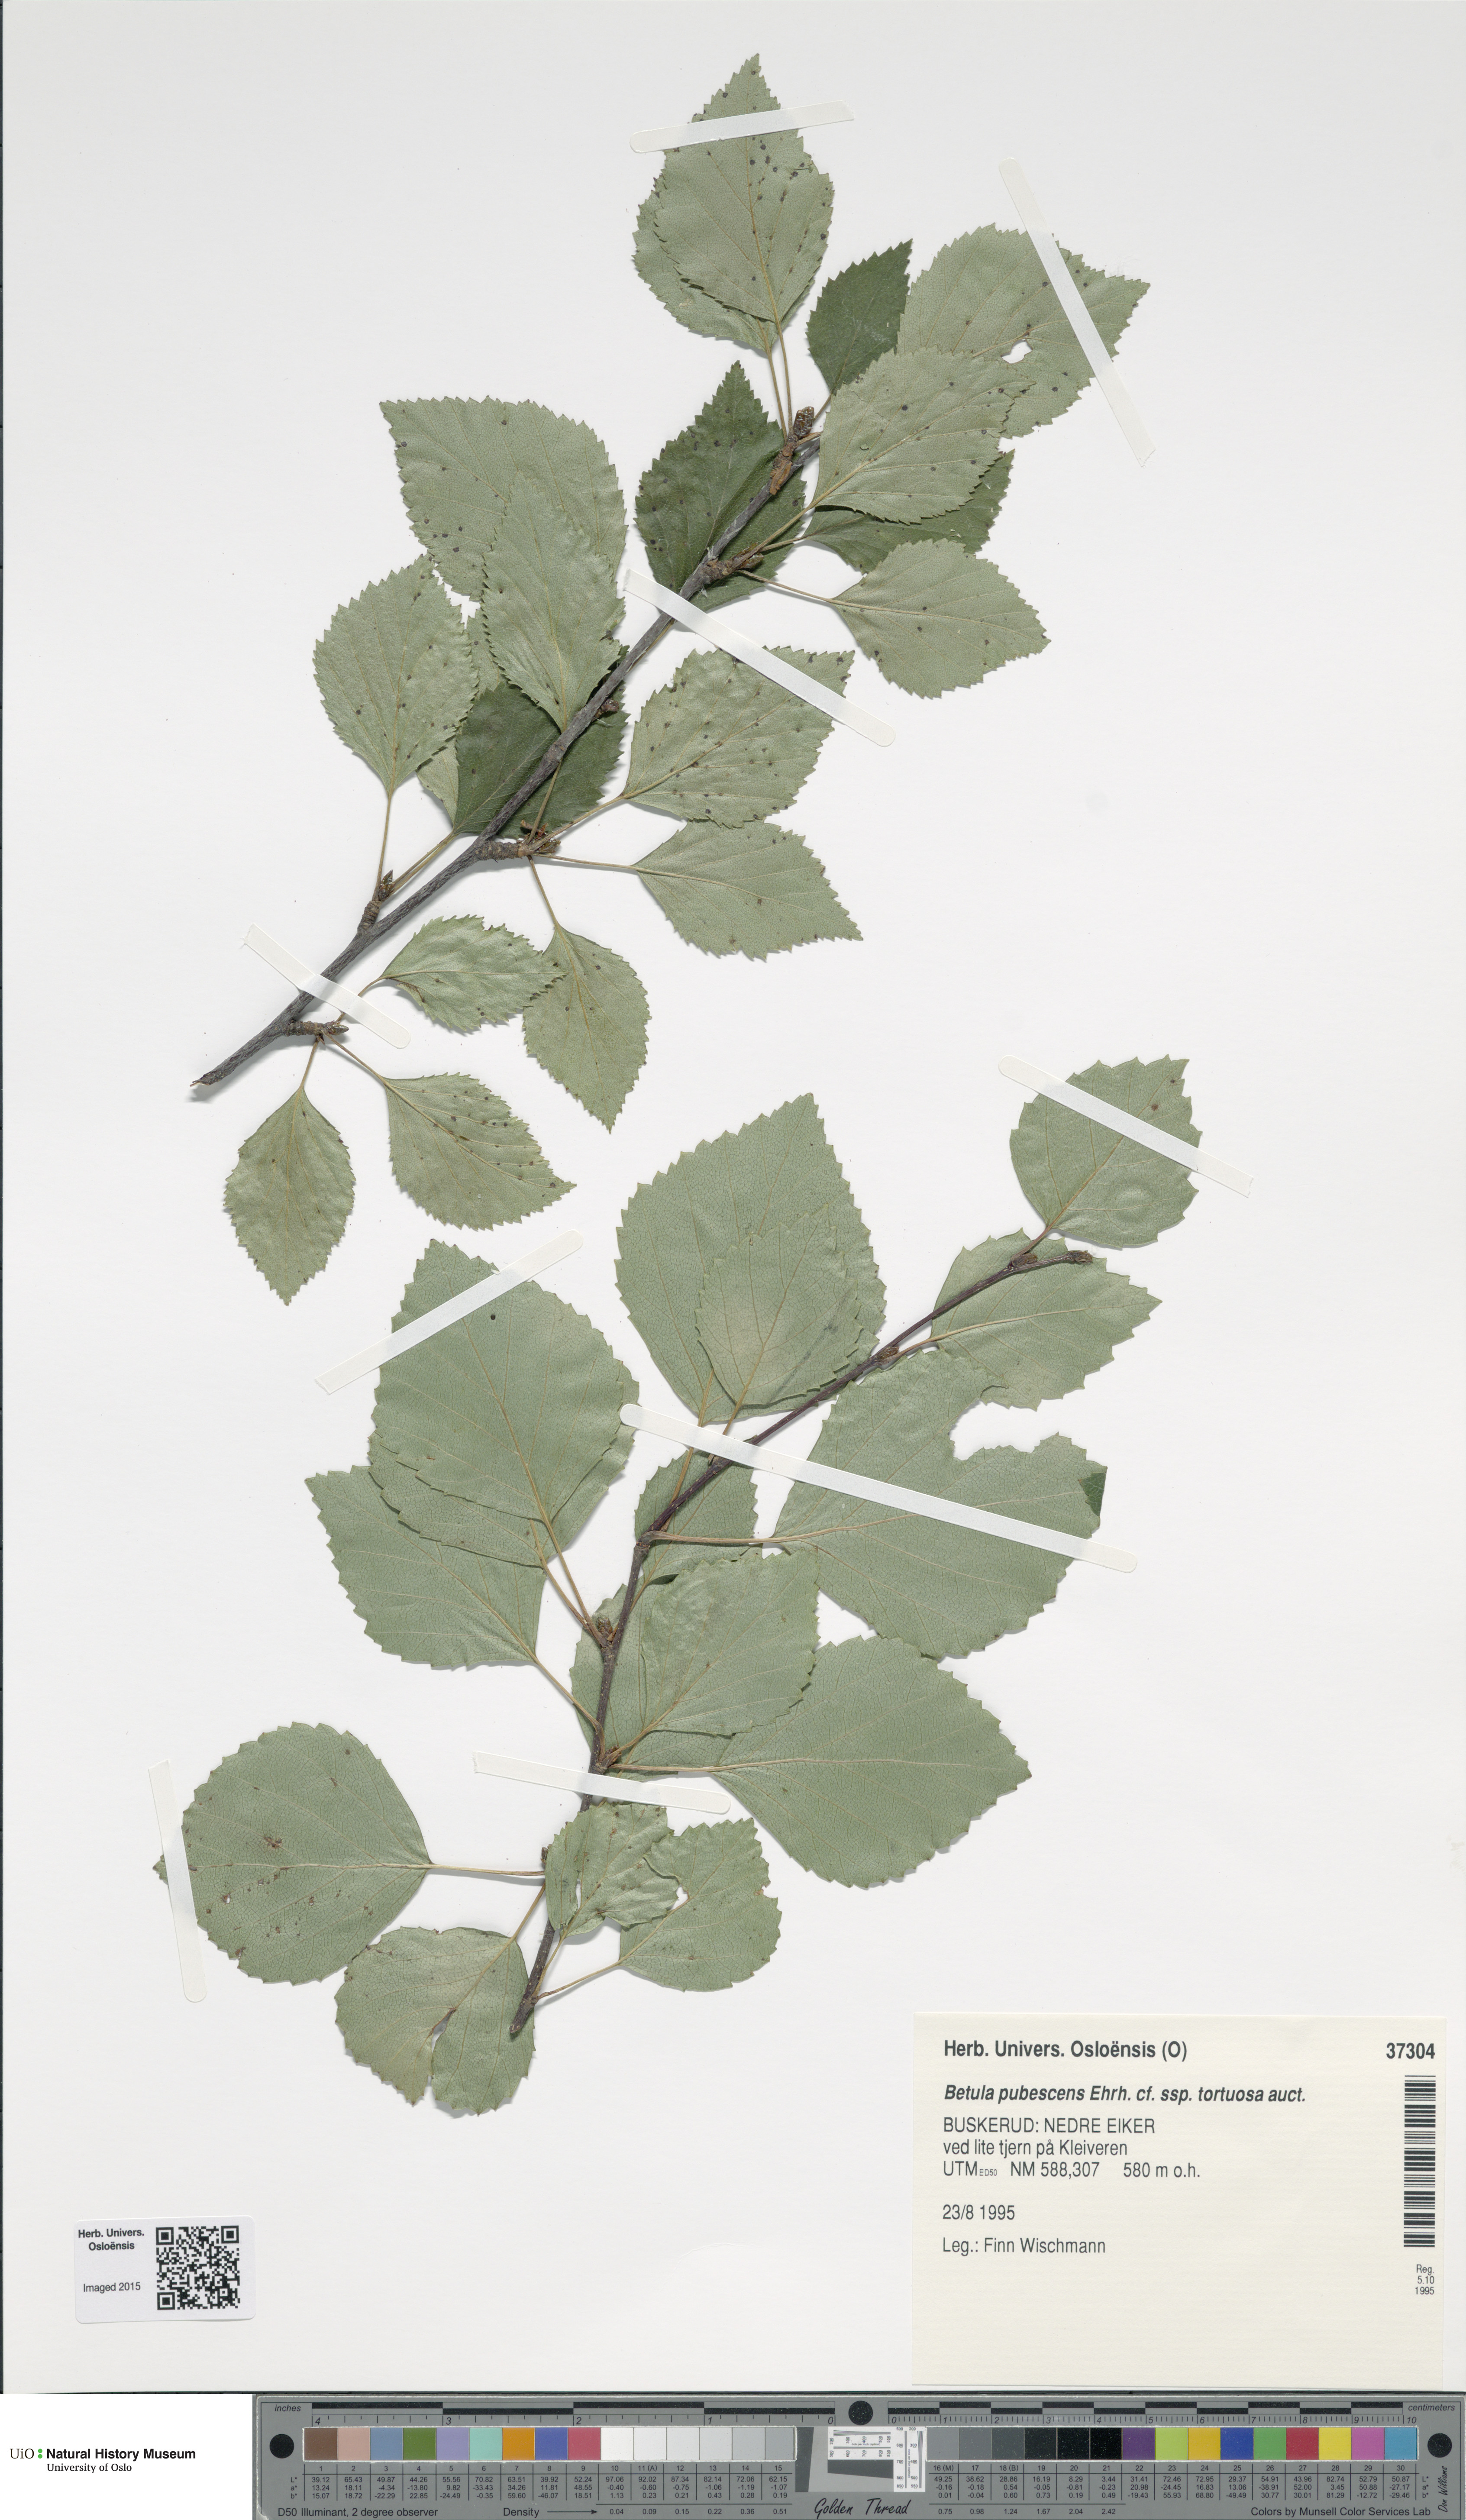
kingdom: Plantae
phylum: Tracheophyta
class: Magnoliopsida
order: Fagales
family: Betulaceae
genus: Betula
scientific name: Betula pubescens
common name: Downy birch
